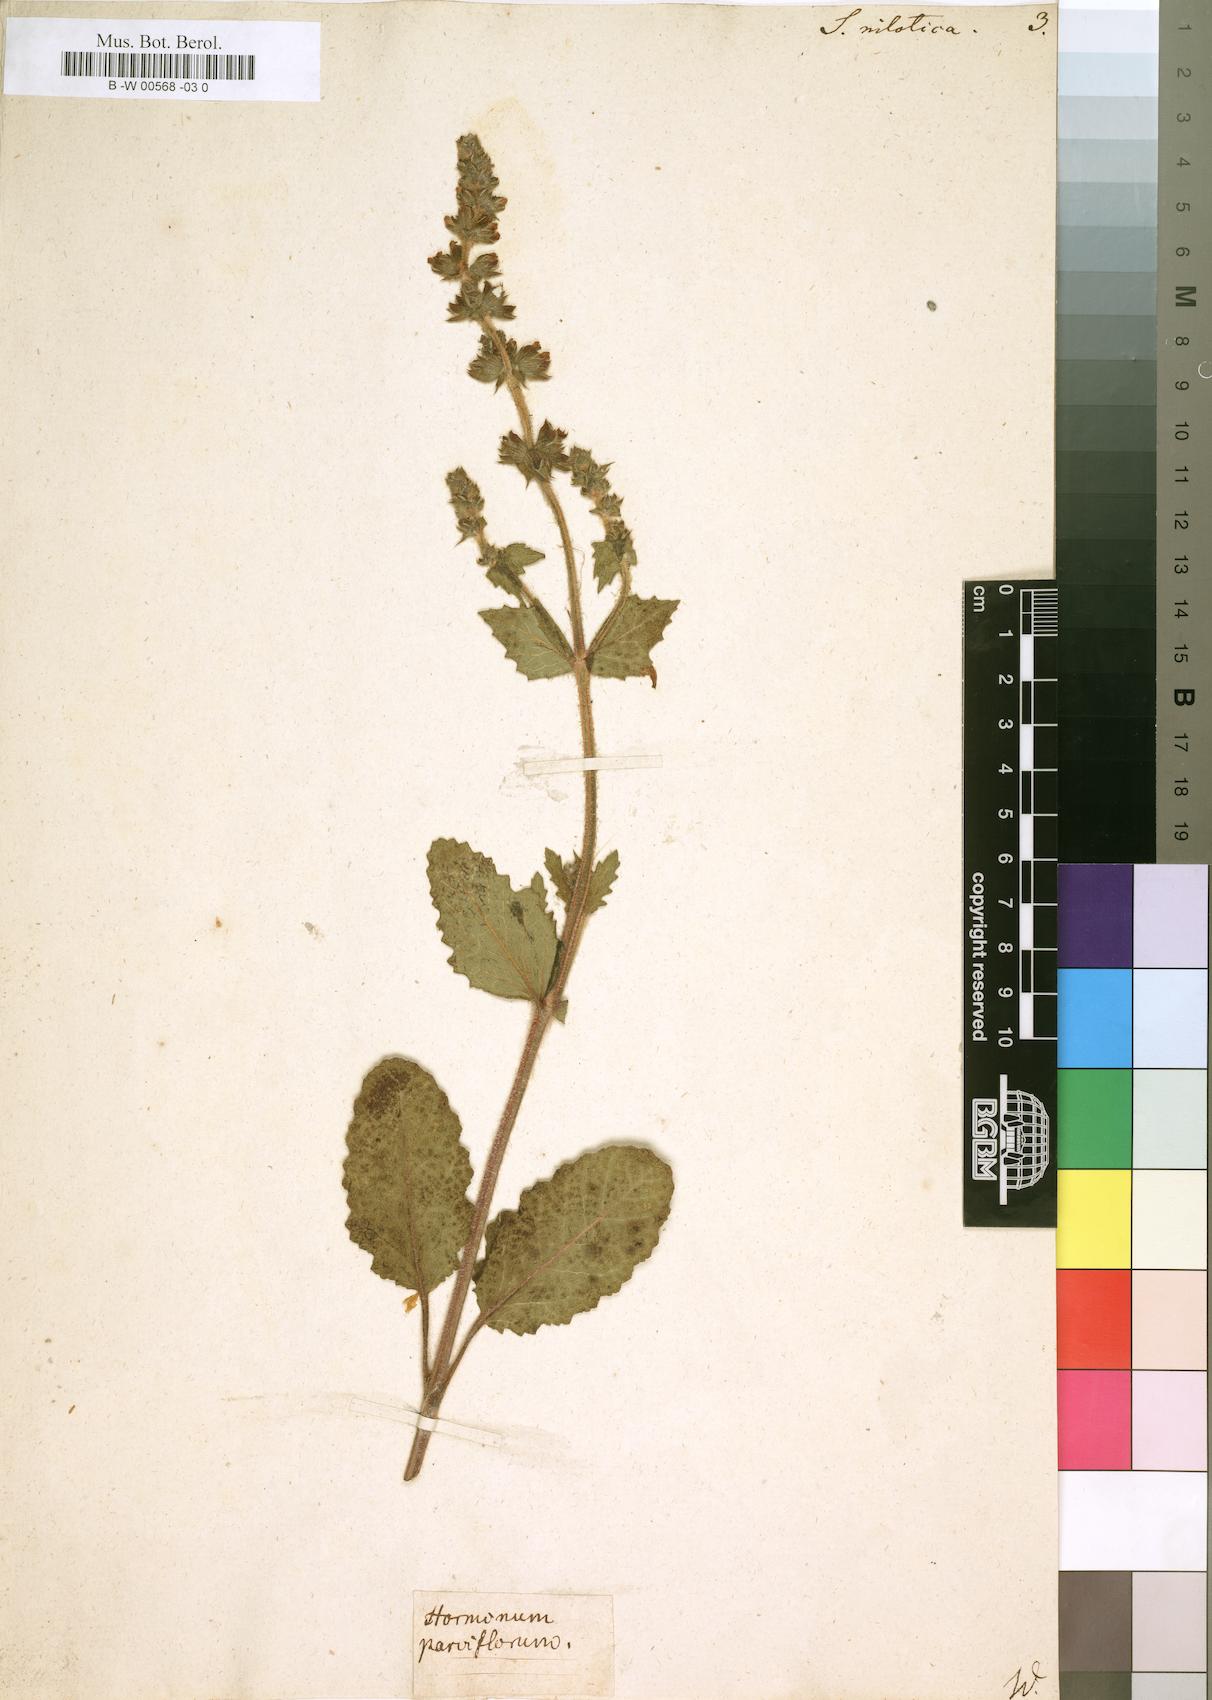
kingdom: Plantae
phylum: Tracheophyta
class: Magnoliopsida
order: Lamiales
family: Lamiaceae
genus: Salvia
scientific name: Salvia nilotica
